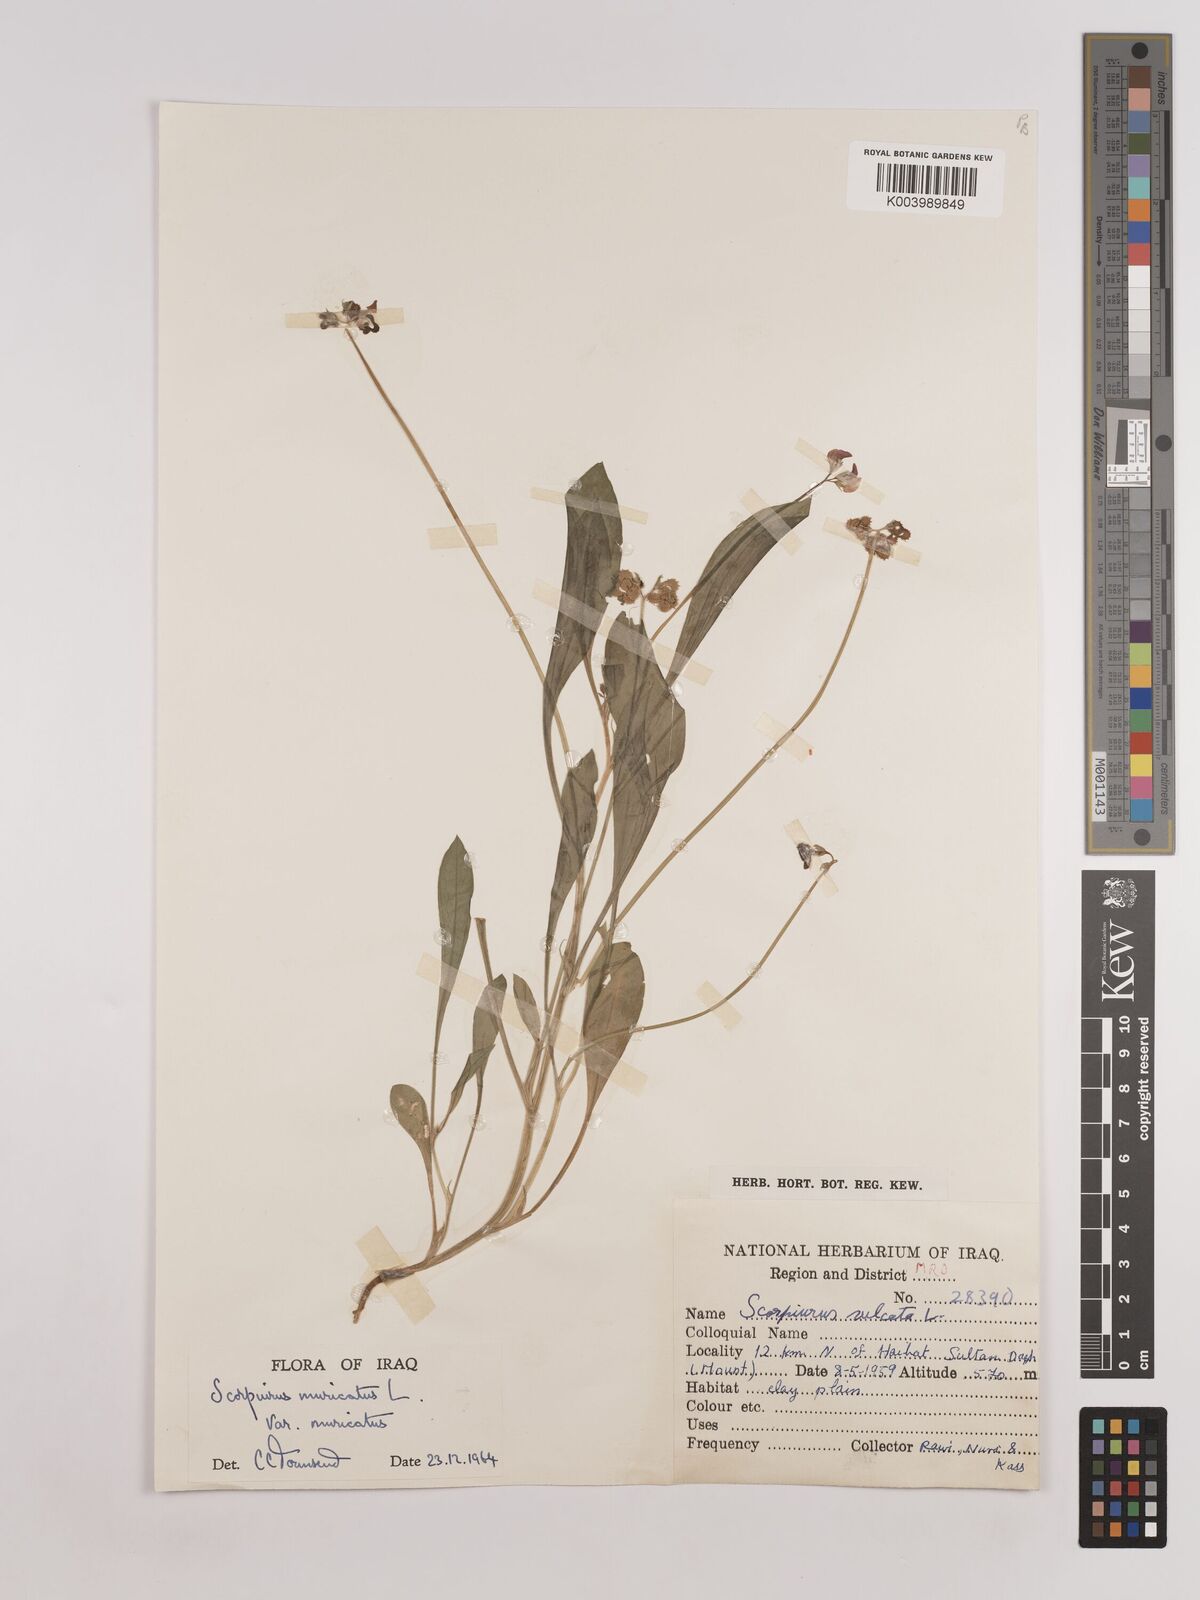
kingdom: Plantae
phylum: Tracheophyta
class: Magnoliopsida
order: Fabales
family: Fabaceae
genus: Scorpiurus
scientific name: Scorpiurus muricatus
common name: Caterpillar-plant
